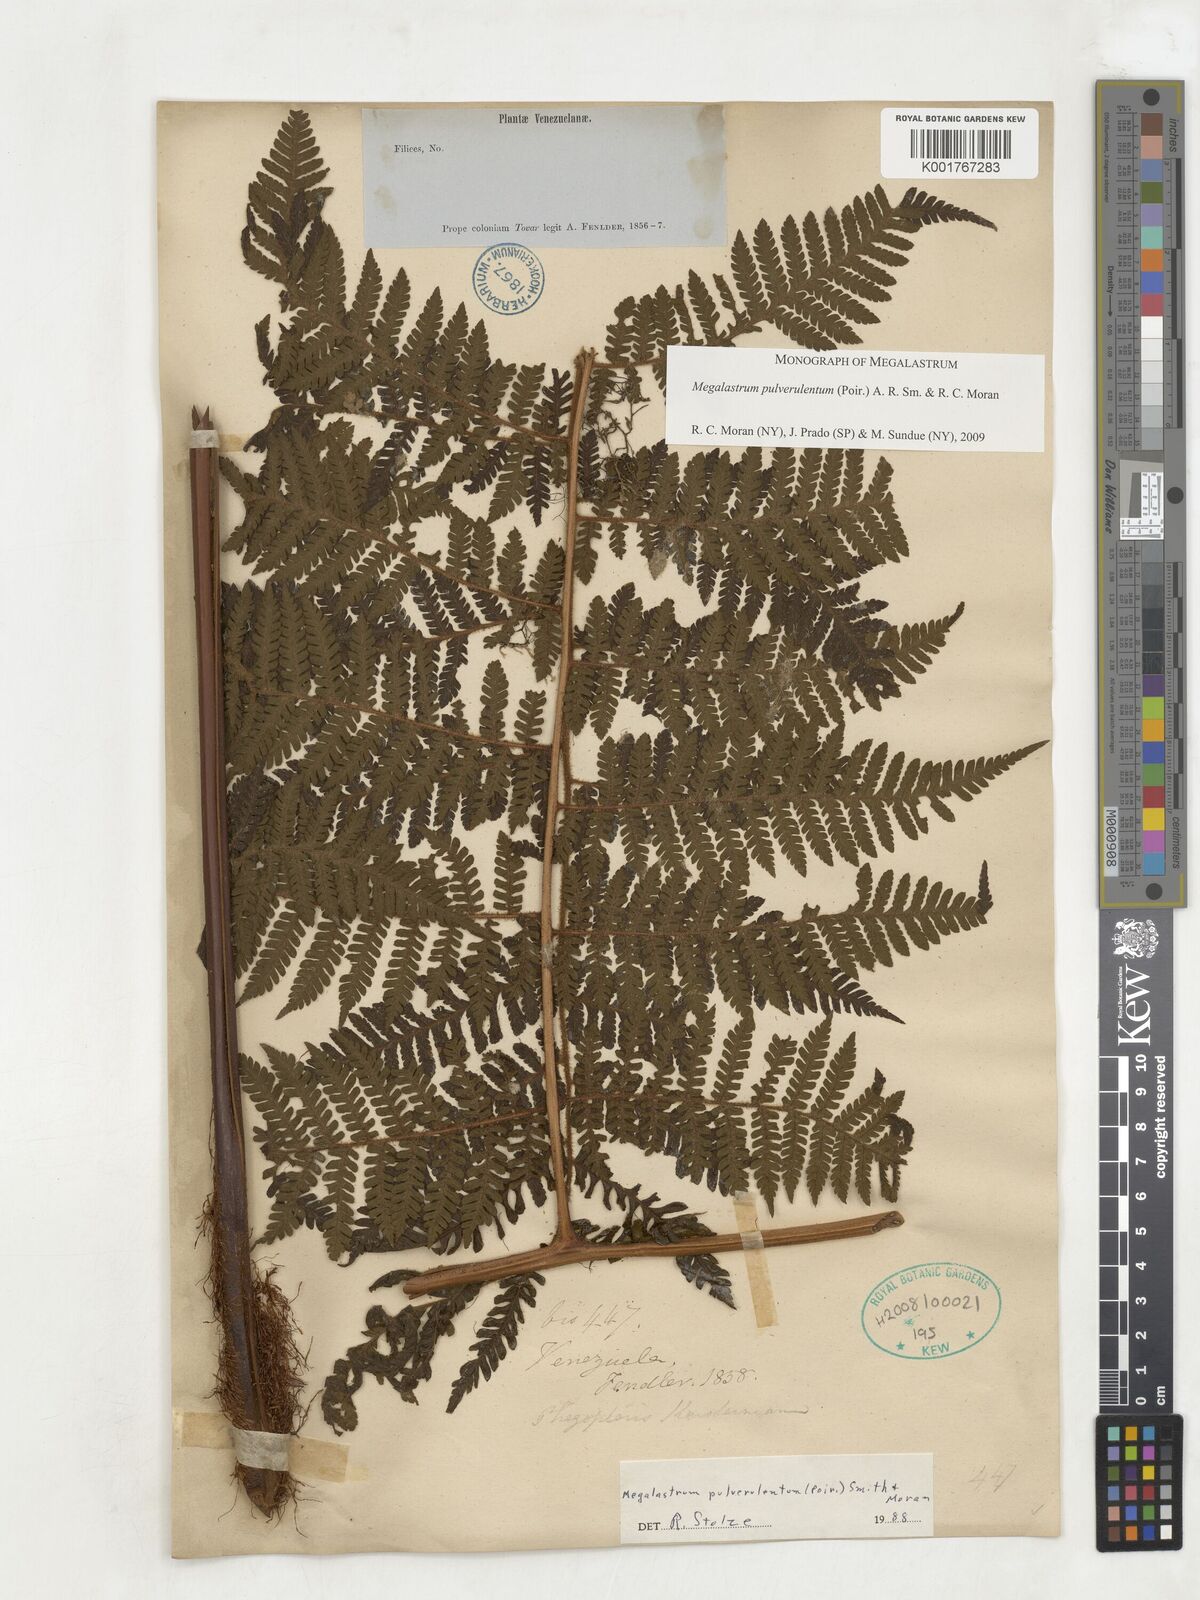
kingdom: Plantae
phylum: Tracheophyta
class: Polypodiopsida
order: Polypodiales
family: Dryopteridaceae
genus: Megalastrum
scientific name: Megalastrum pulverulentum
